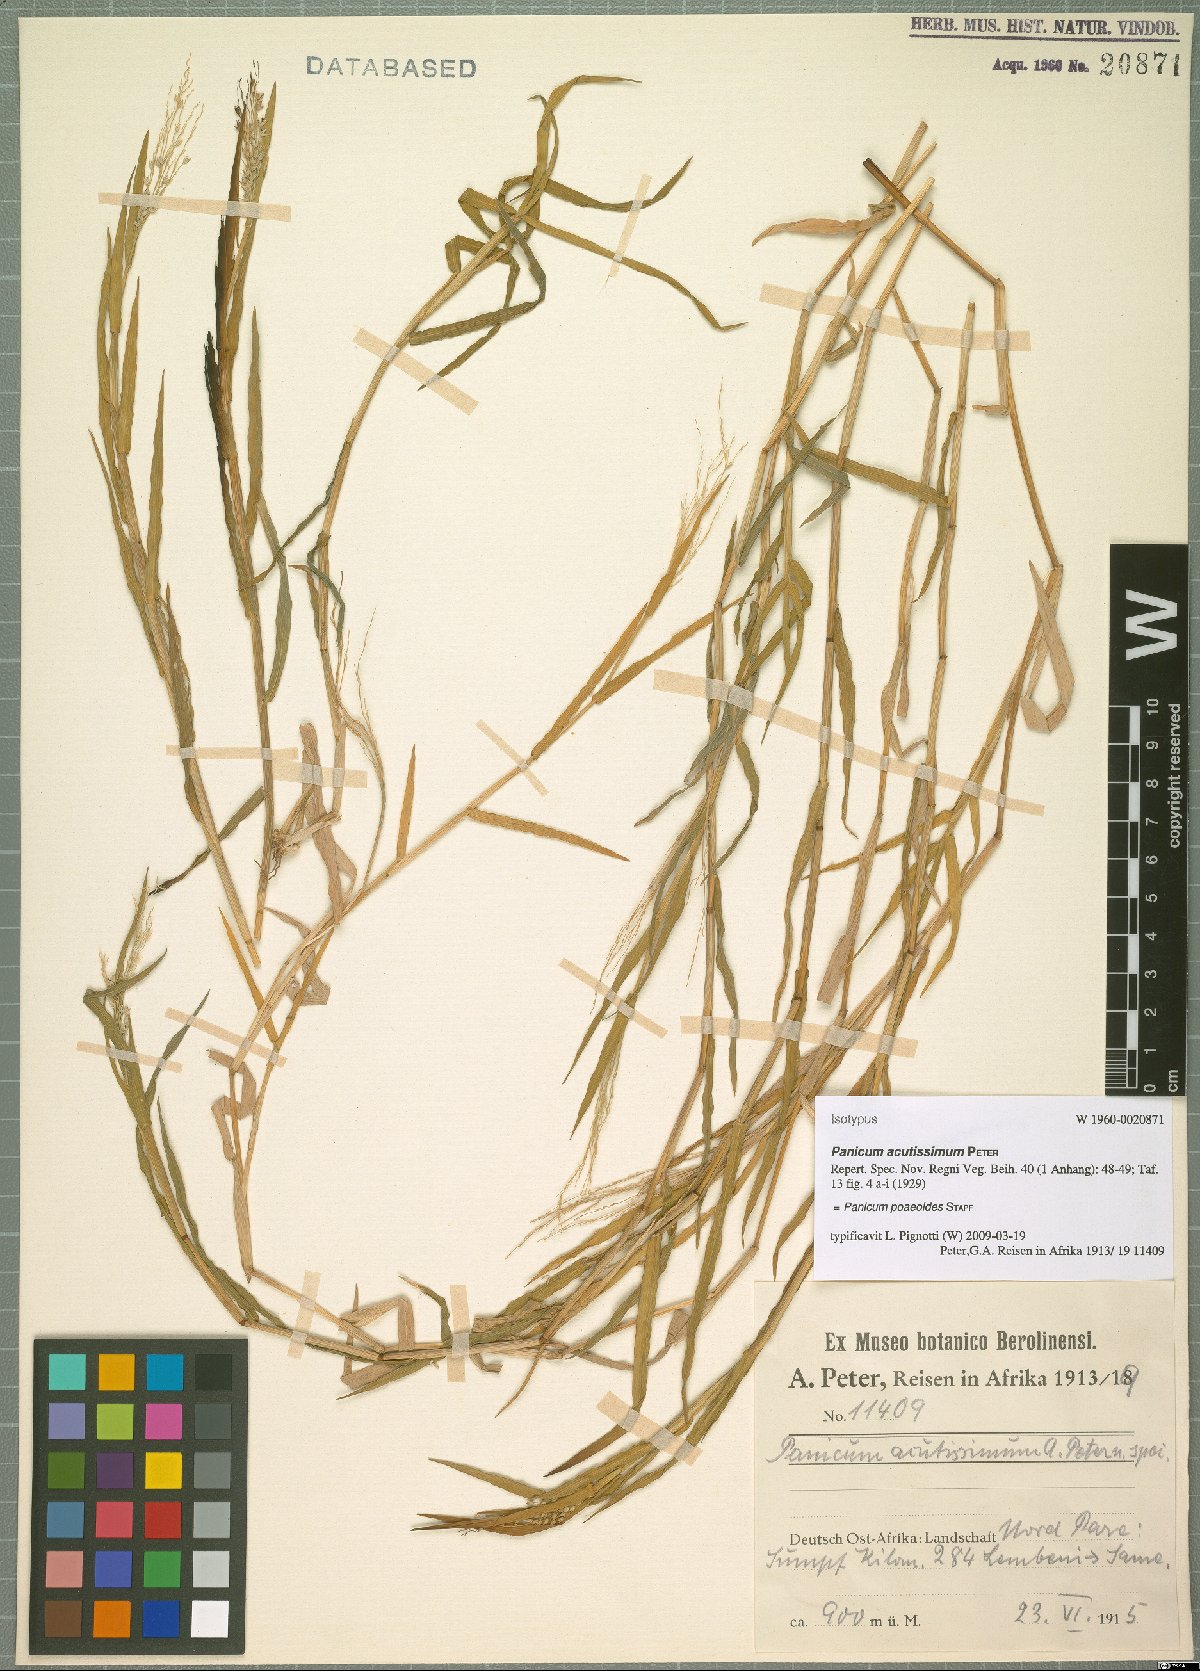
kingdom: Plantae
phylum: Tracheophyta
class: Liliopsida
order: Poales
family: Poaceae
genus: Panicum
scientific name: Panicum poaeoides
